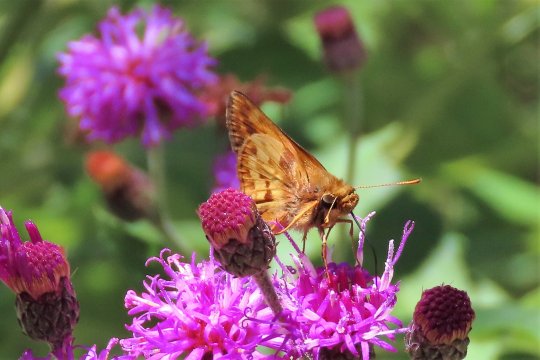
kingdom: Animalia
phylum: Arthropoda
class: Insecta
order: Lepidoptera
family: Hesperiidae
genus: Lon
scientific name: Lon zabulon
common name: Zabulon Skipper
